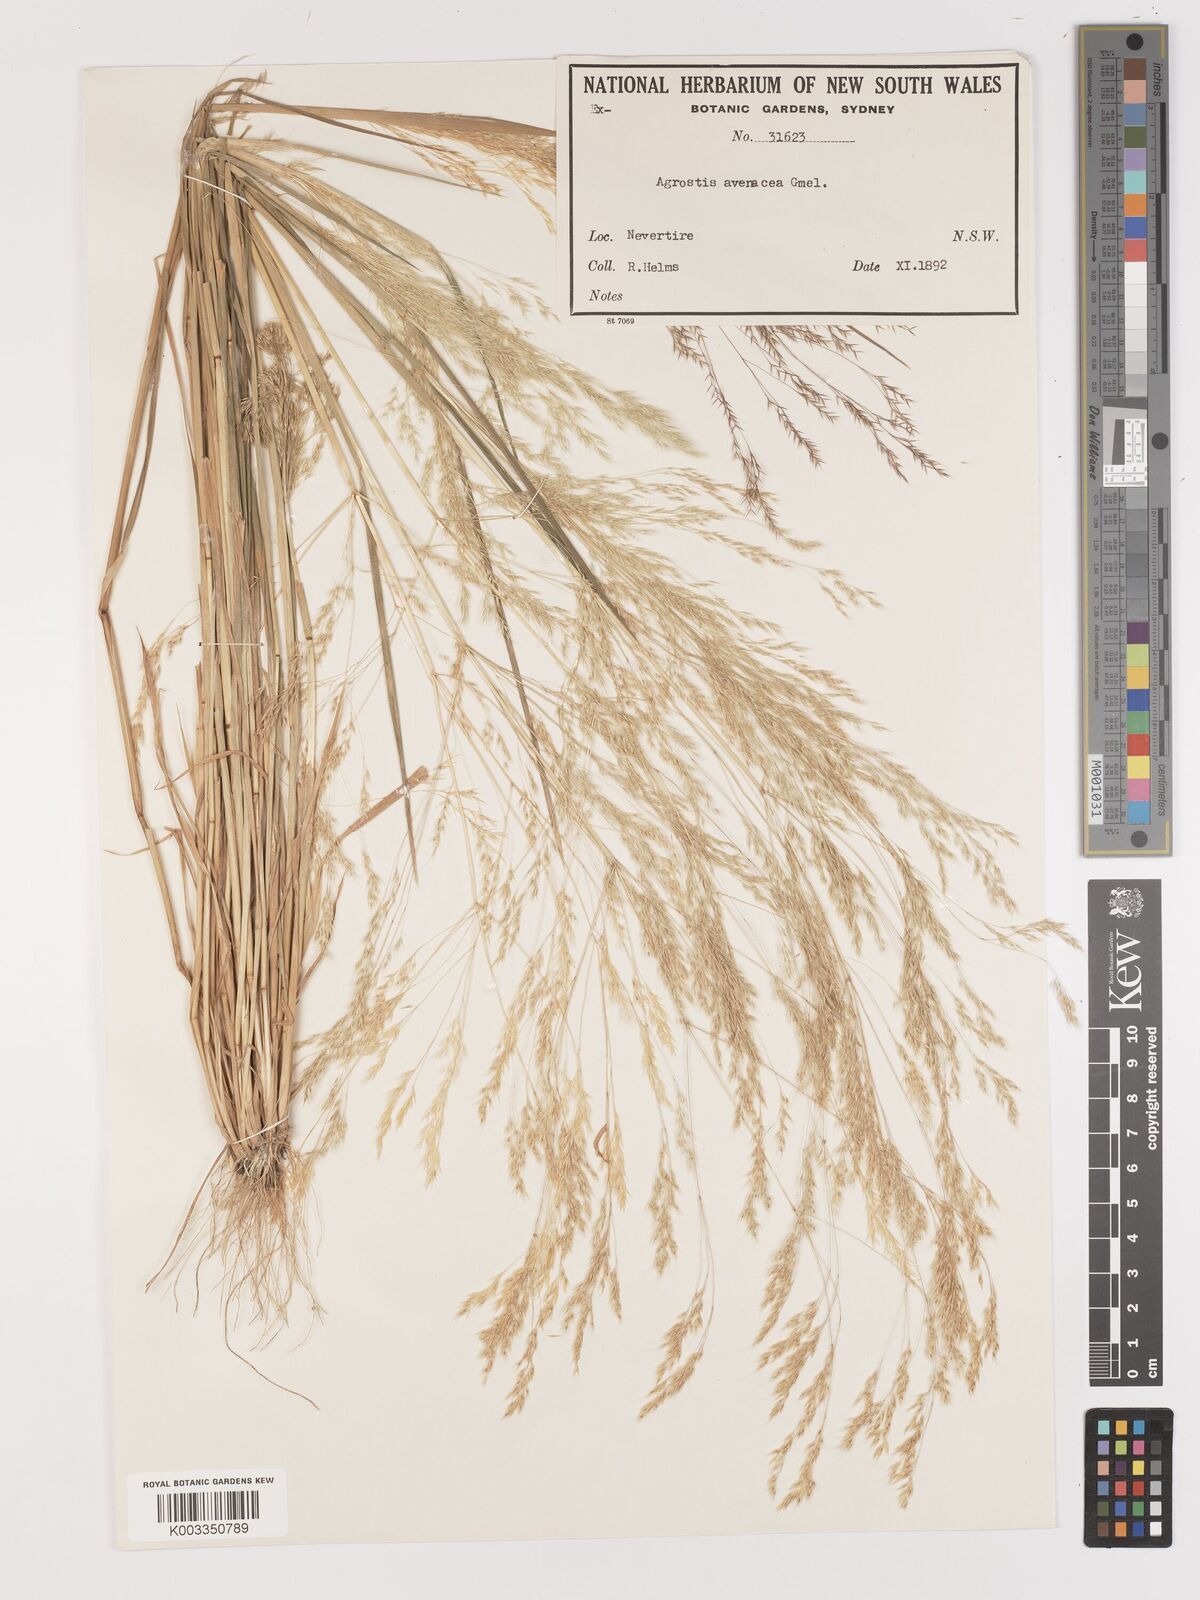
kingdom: Plantae
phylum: Tracheophyta
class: Liliopsida
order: Poales
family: Poaceae
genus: Lachnagrostis
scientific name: Lachnagrostis filiformis
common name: Bentgrass
